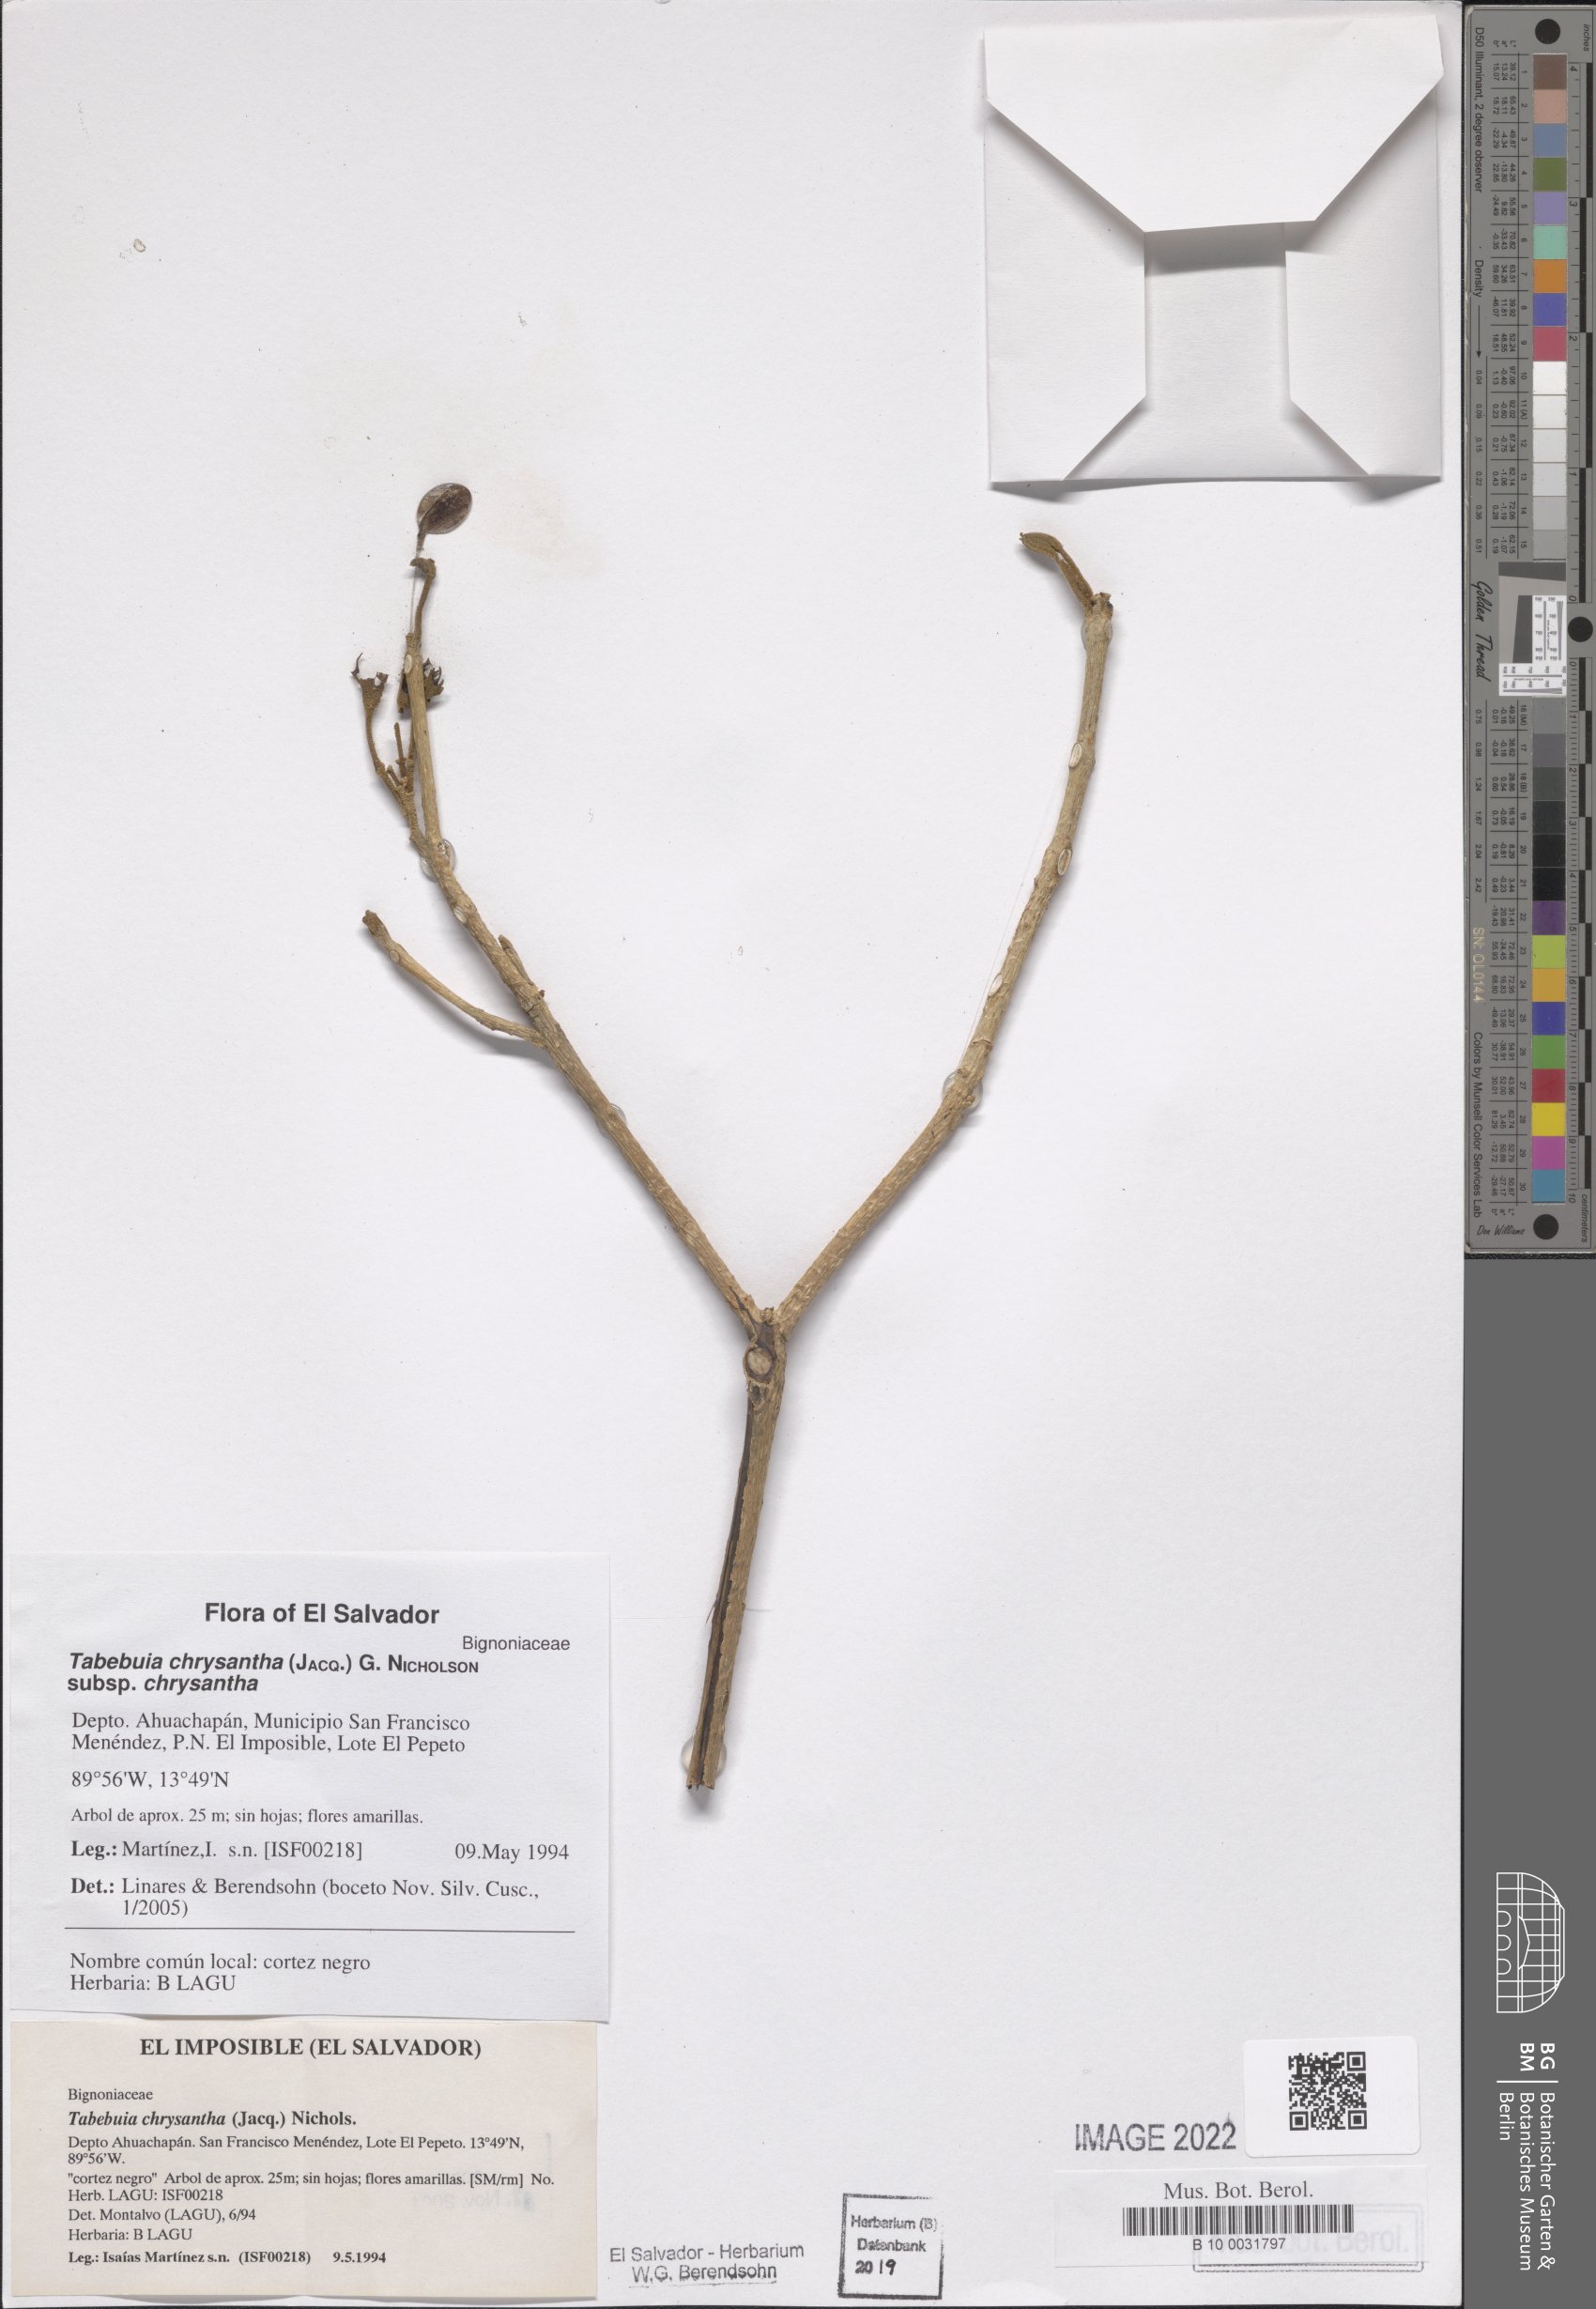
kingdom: Plantae
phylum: Tracheophyta
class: Magnoliopsida
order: Lamiales
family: Bignoniaceae
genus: Handroanthus
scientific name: Handroanthus chrysanthus
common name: Trumpet trees
